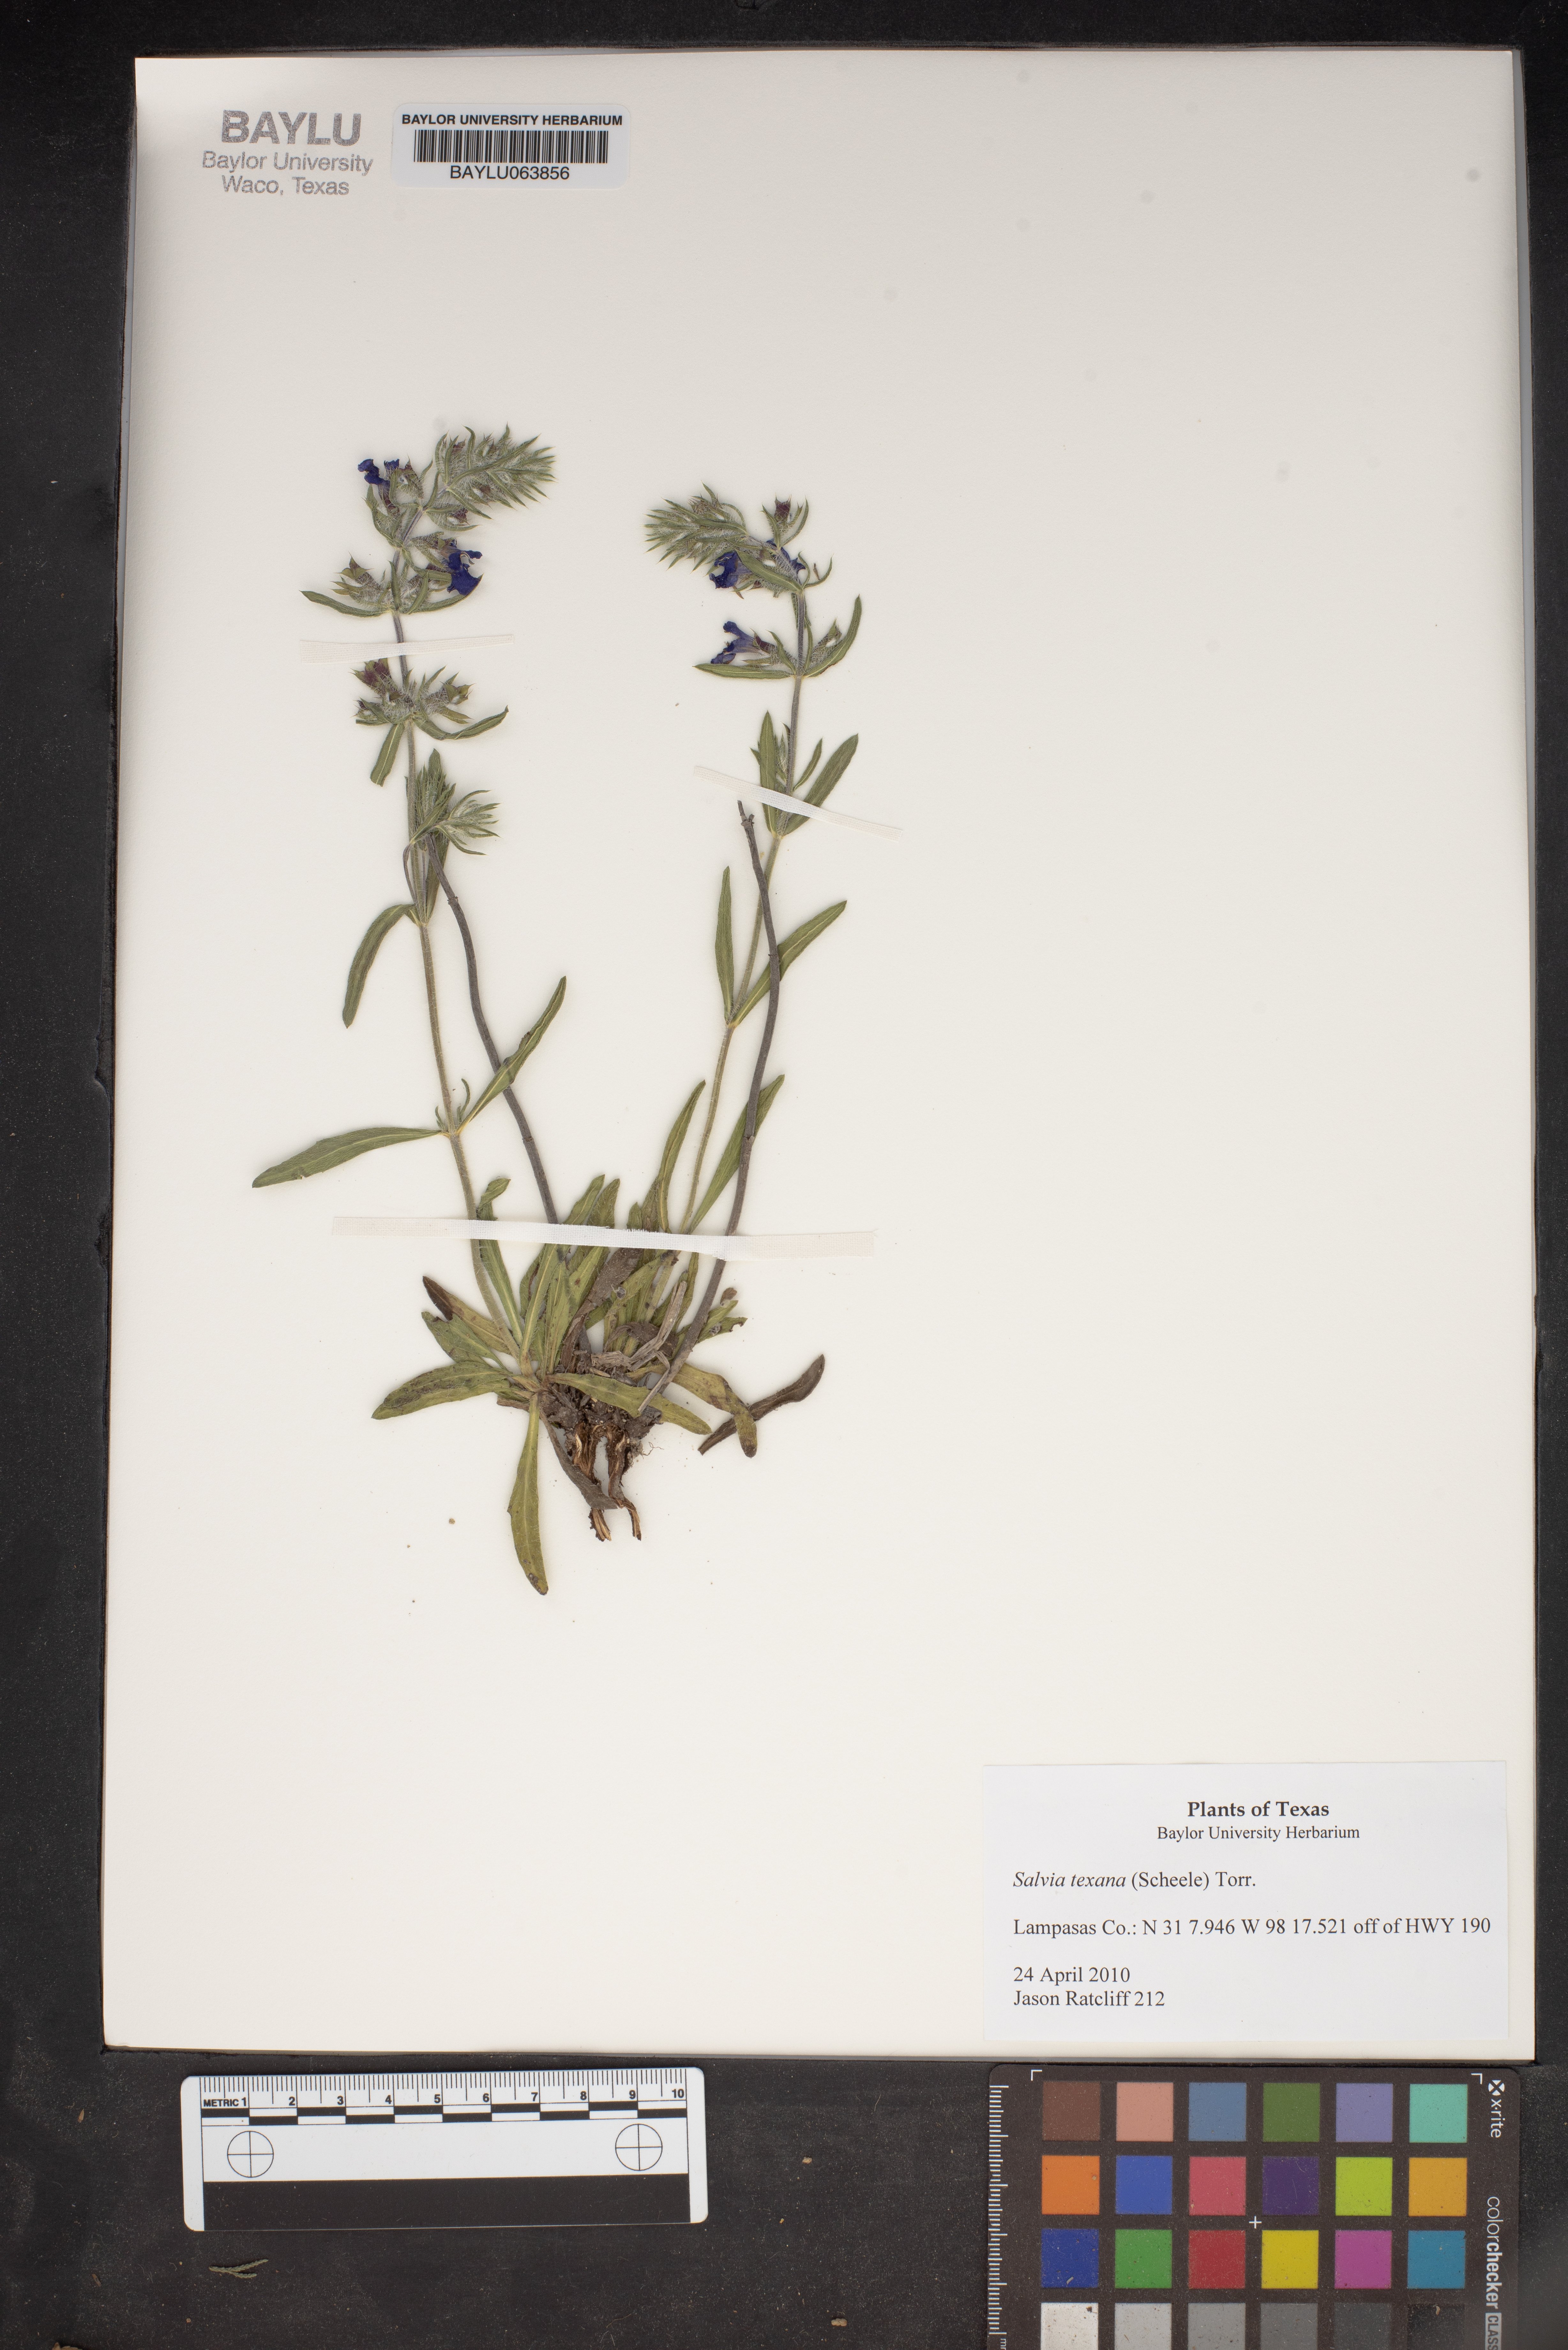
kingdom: Plantae
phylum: Tracheophyta
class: Magnoliopsida
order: Lamiales
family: Lamiaceae
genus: Salvia
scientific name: Salvia texana
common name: Texas sage
